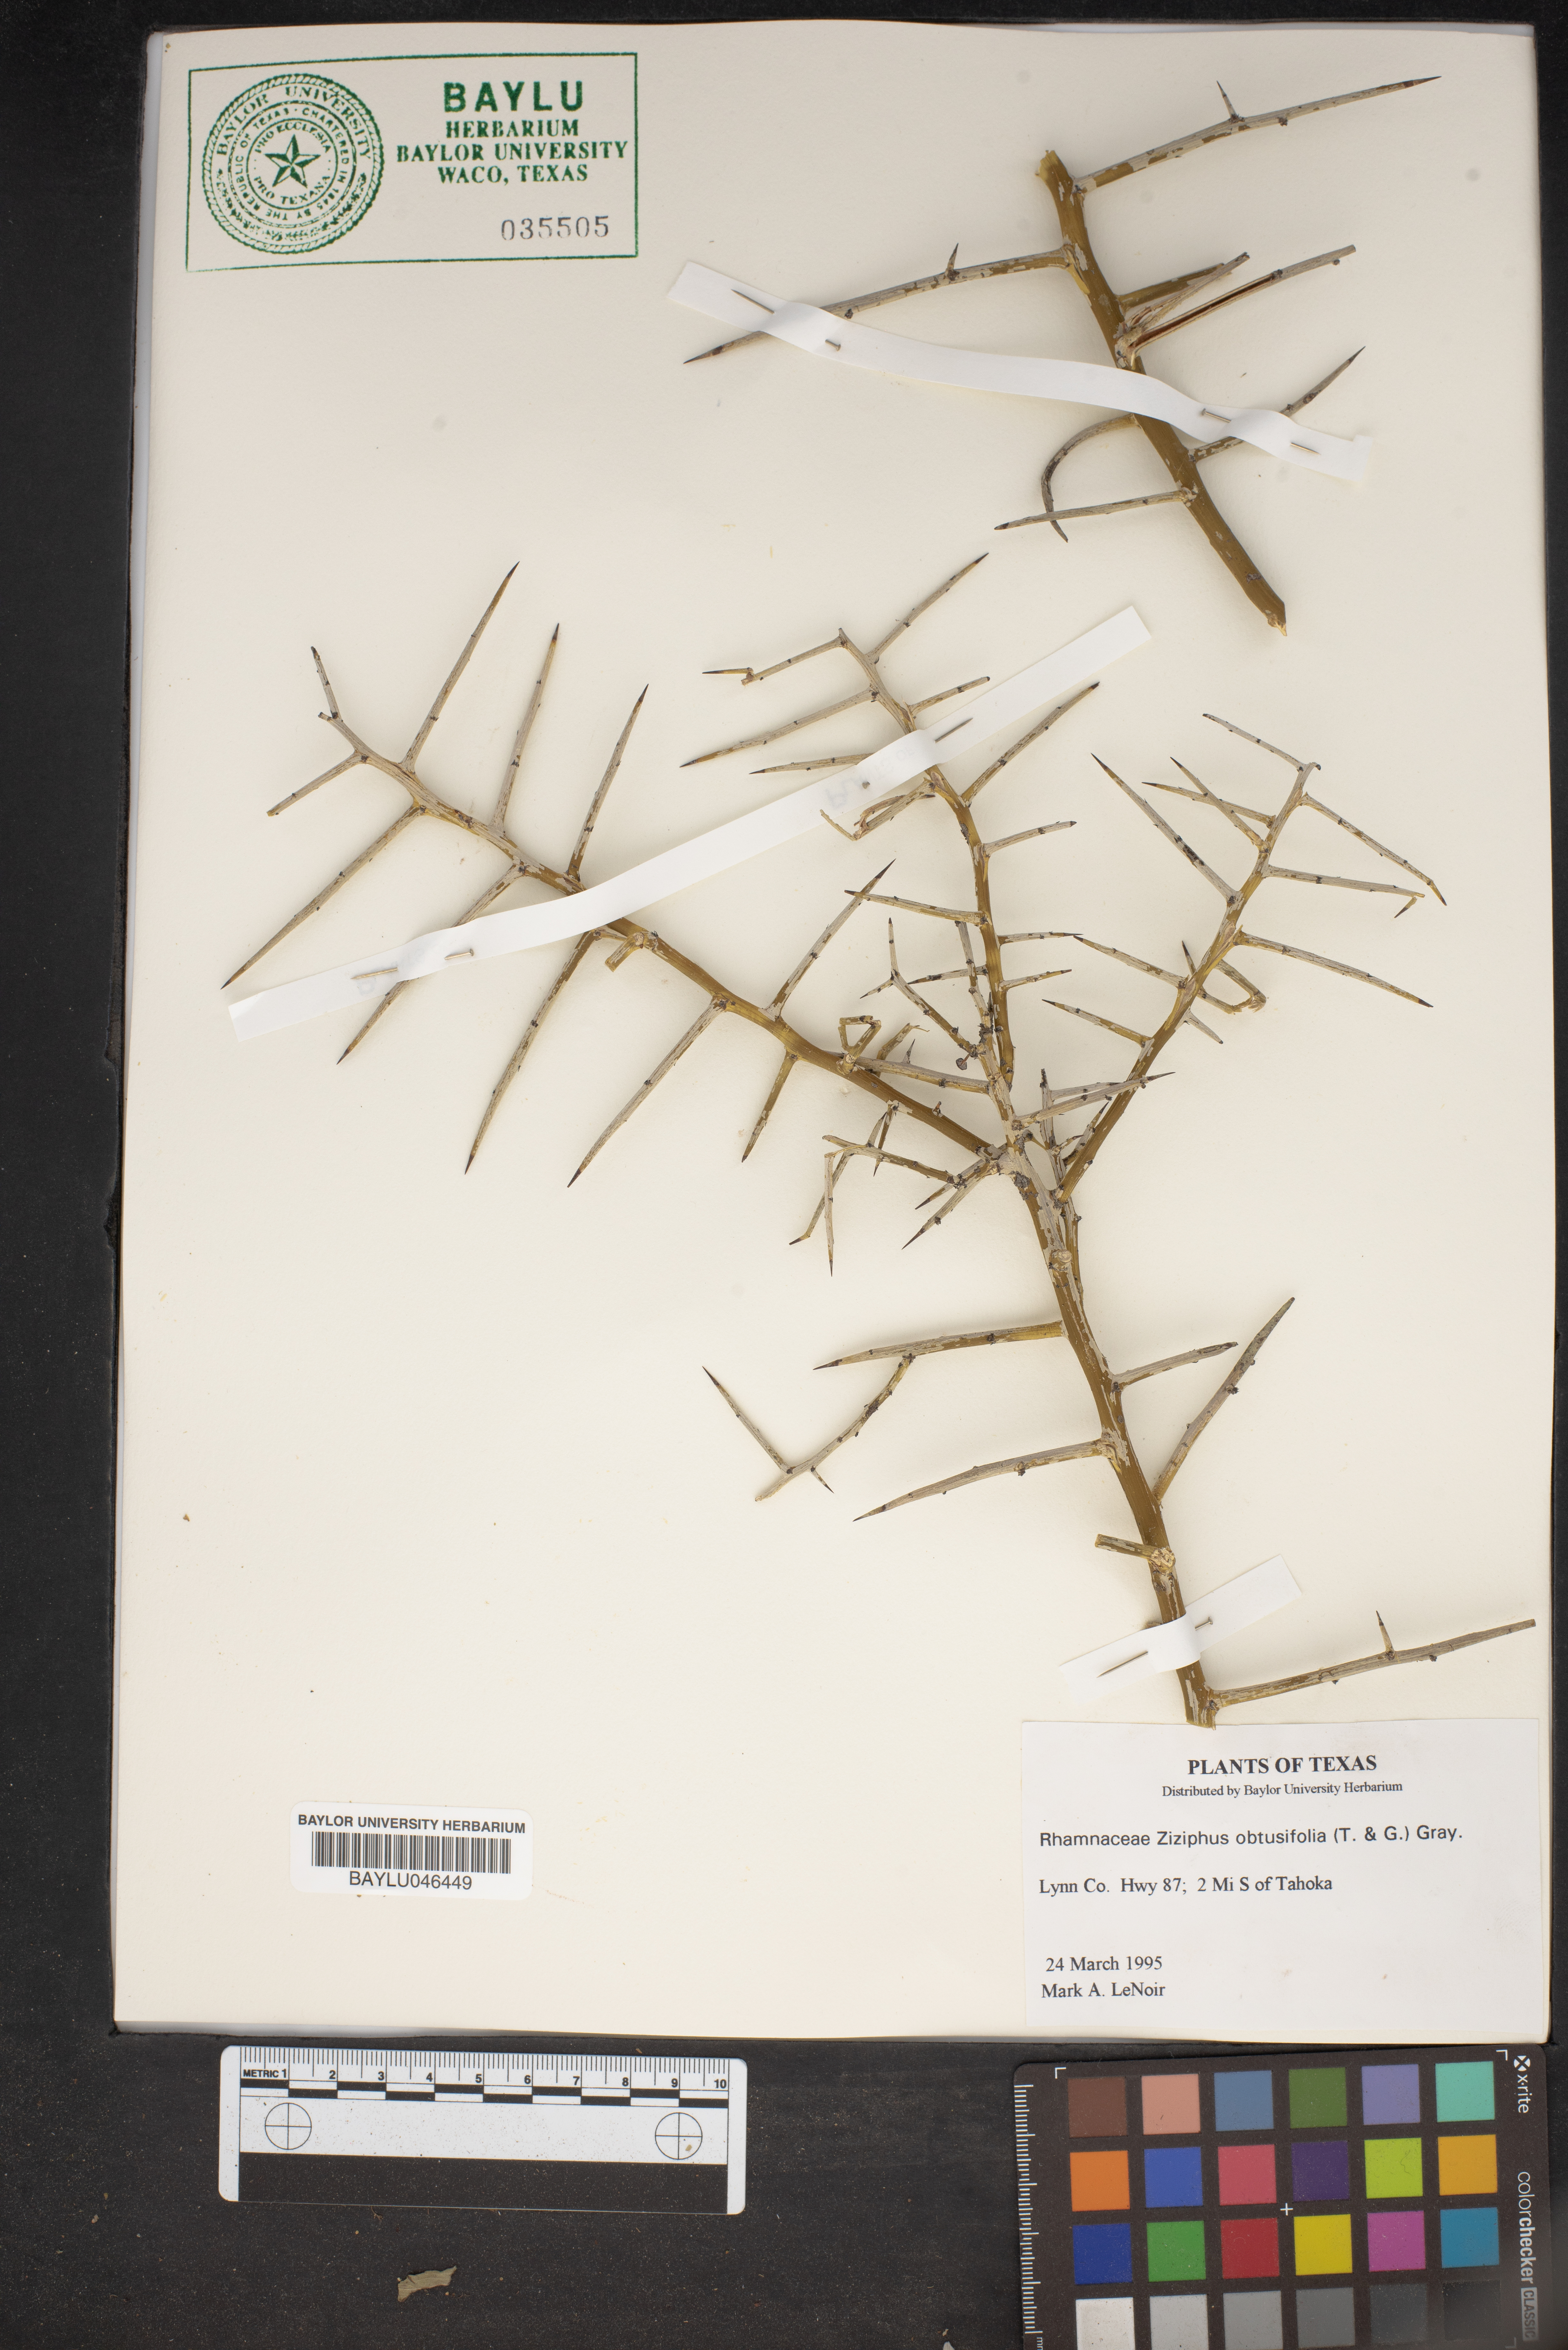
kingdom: Plantae
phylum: Tracheophyta
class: Magnoliopsida
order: Rosales
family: Rhamnaceae
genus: Sarcomphalus
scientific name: Sarcomphalus obtusifolius
